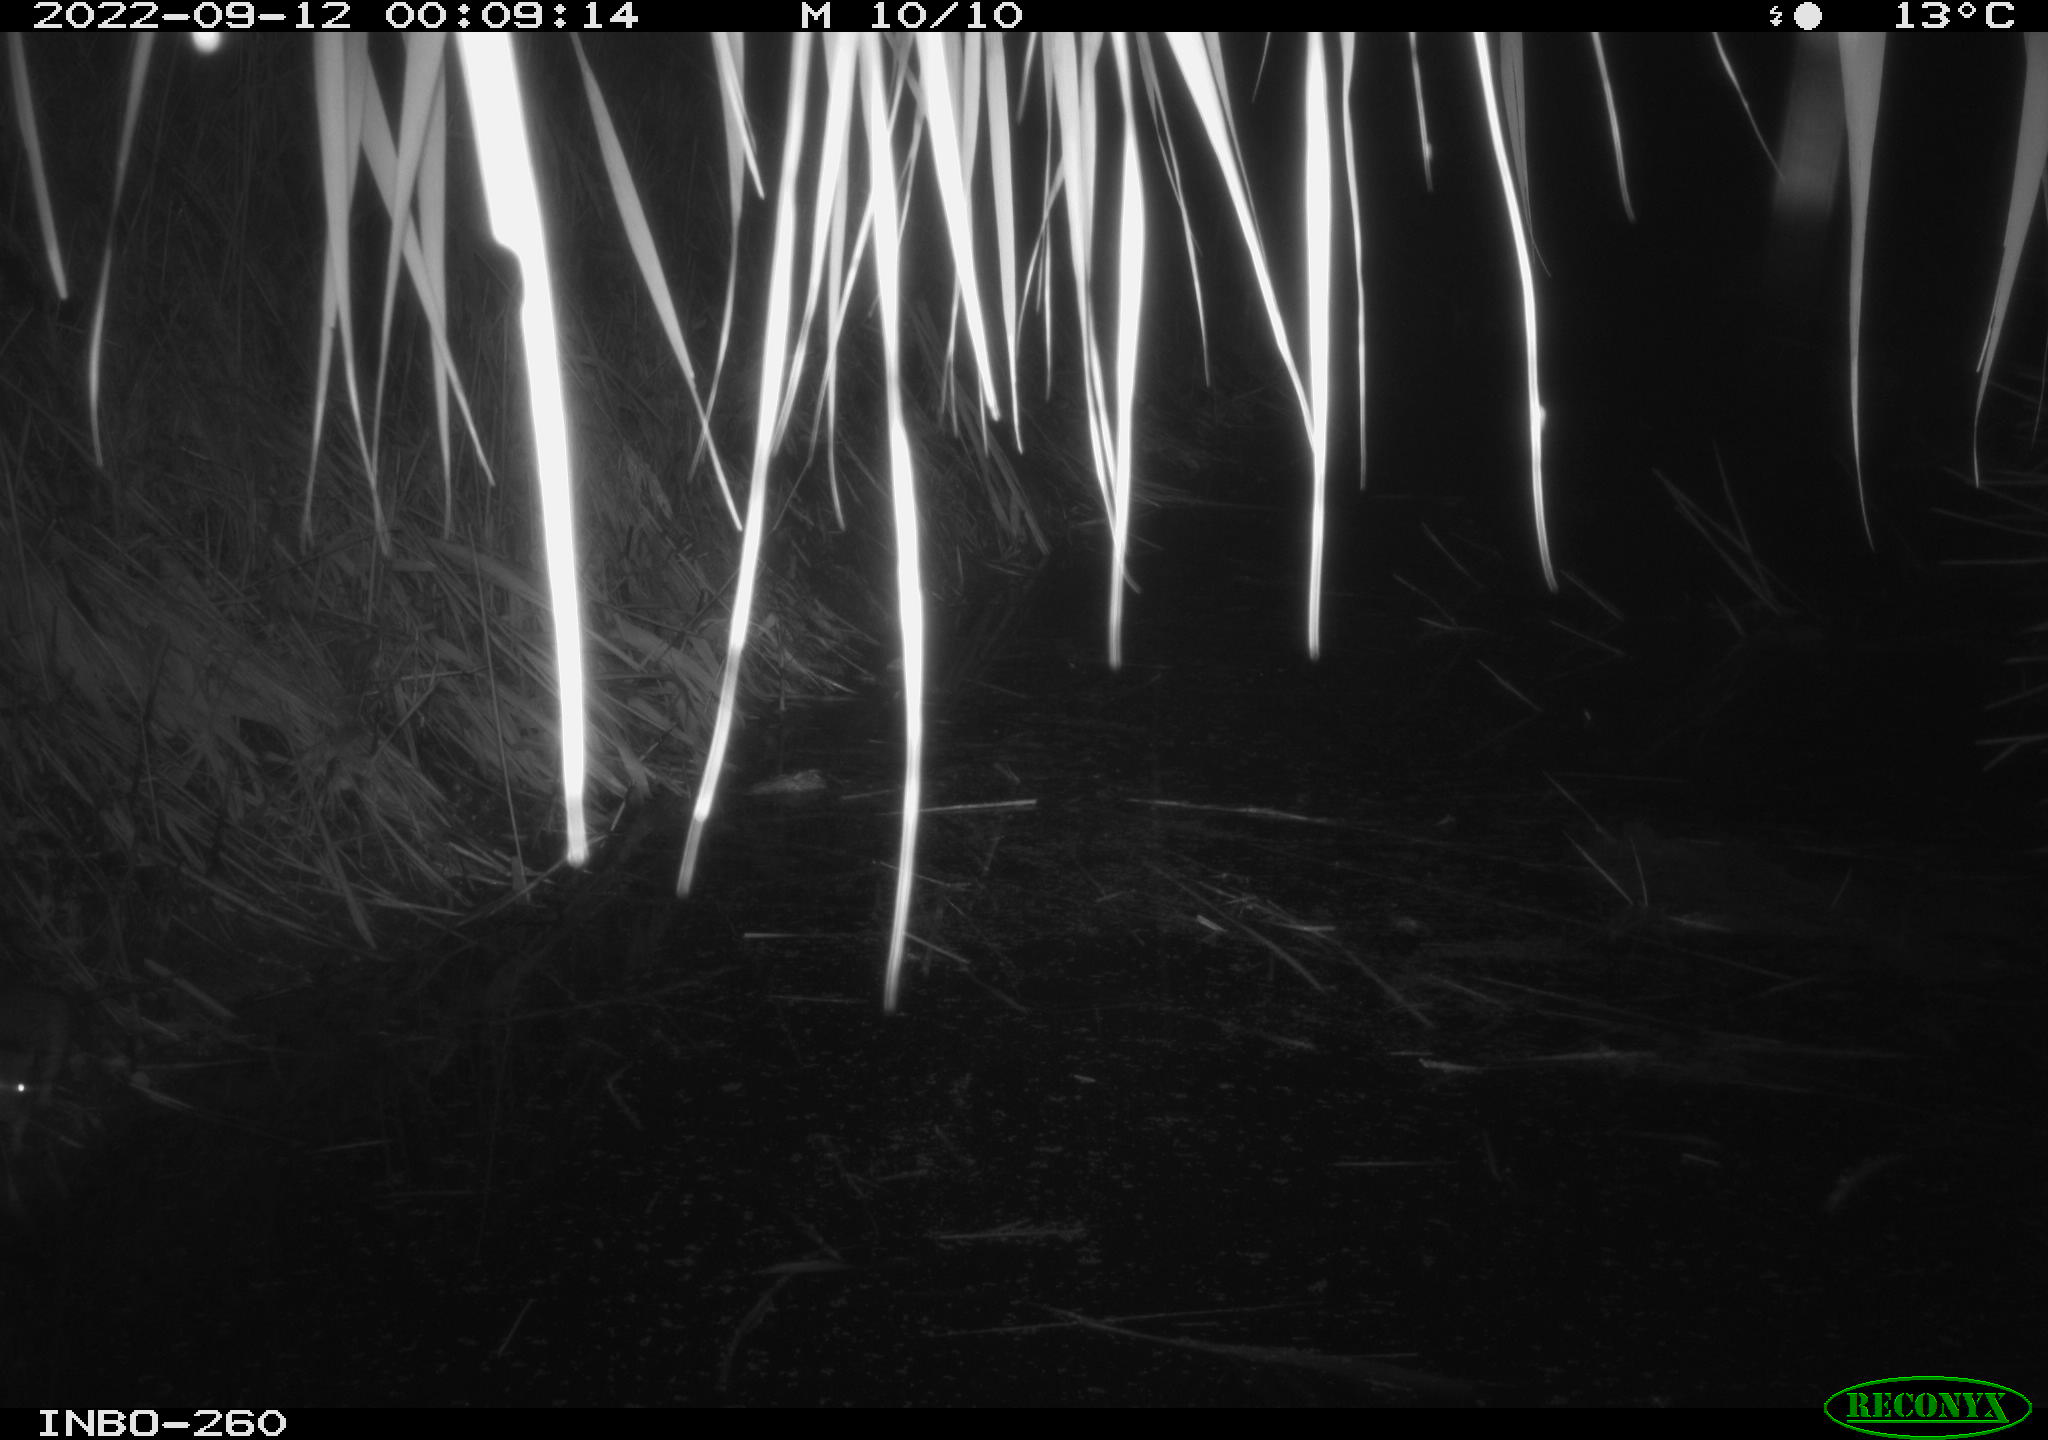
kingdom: Animalia
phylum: Chordata
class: Mammalia
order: Rodentia
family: Muridae
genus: Rattus
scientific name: Rattus norvegicus
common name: Brown rat
